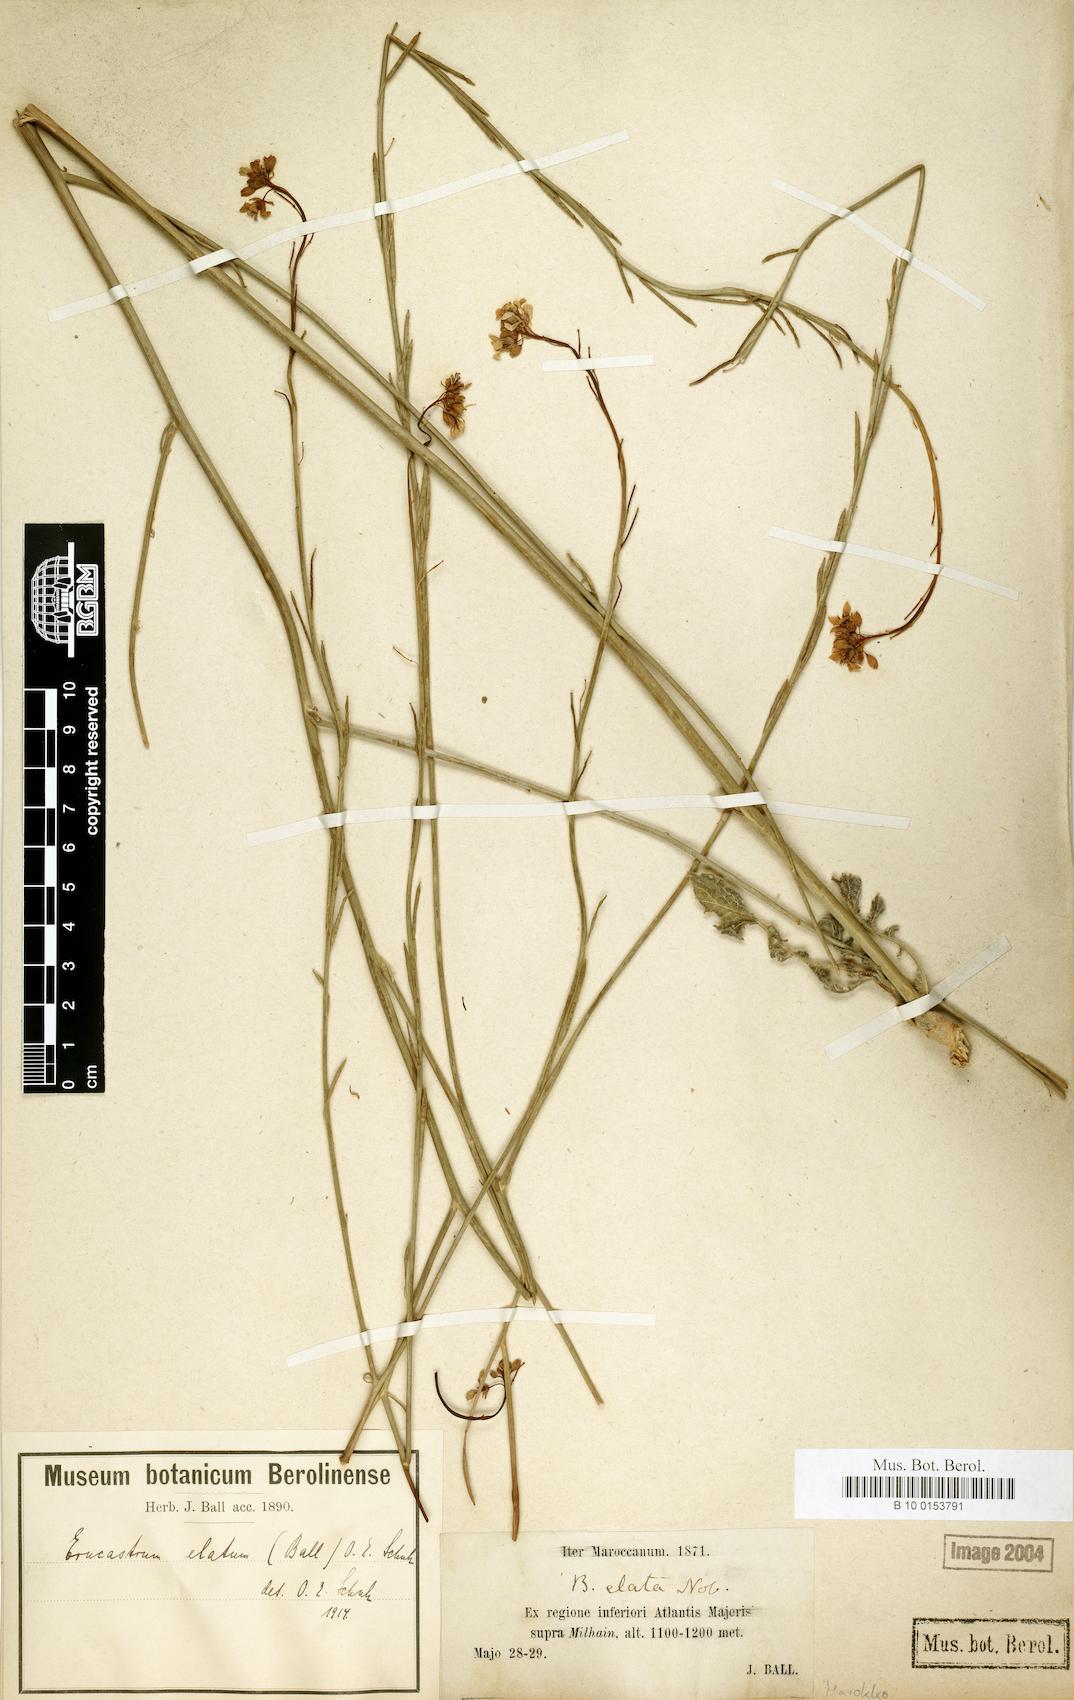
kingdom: Plantae
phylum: Tracheophyta
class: Magnoliopsida
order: Brassicales
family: Brassicaceae
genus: Erucastrum
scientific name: Erucastrum elatum
